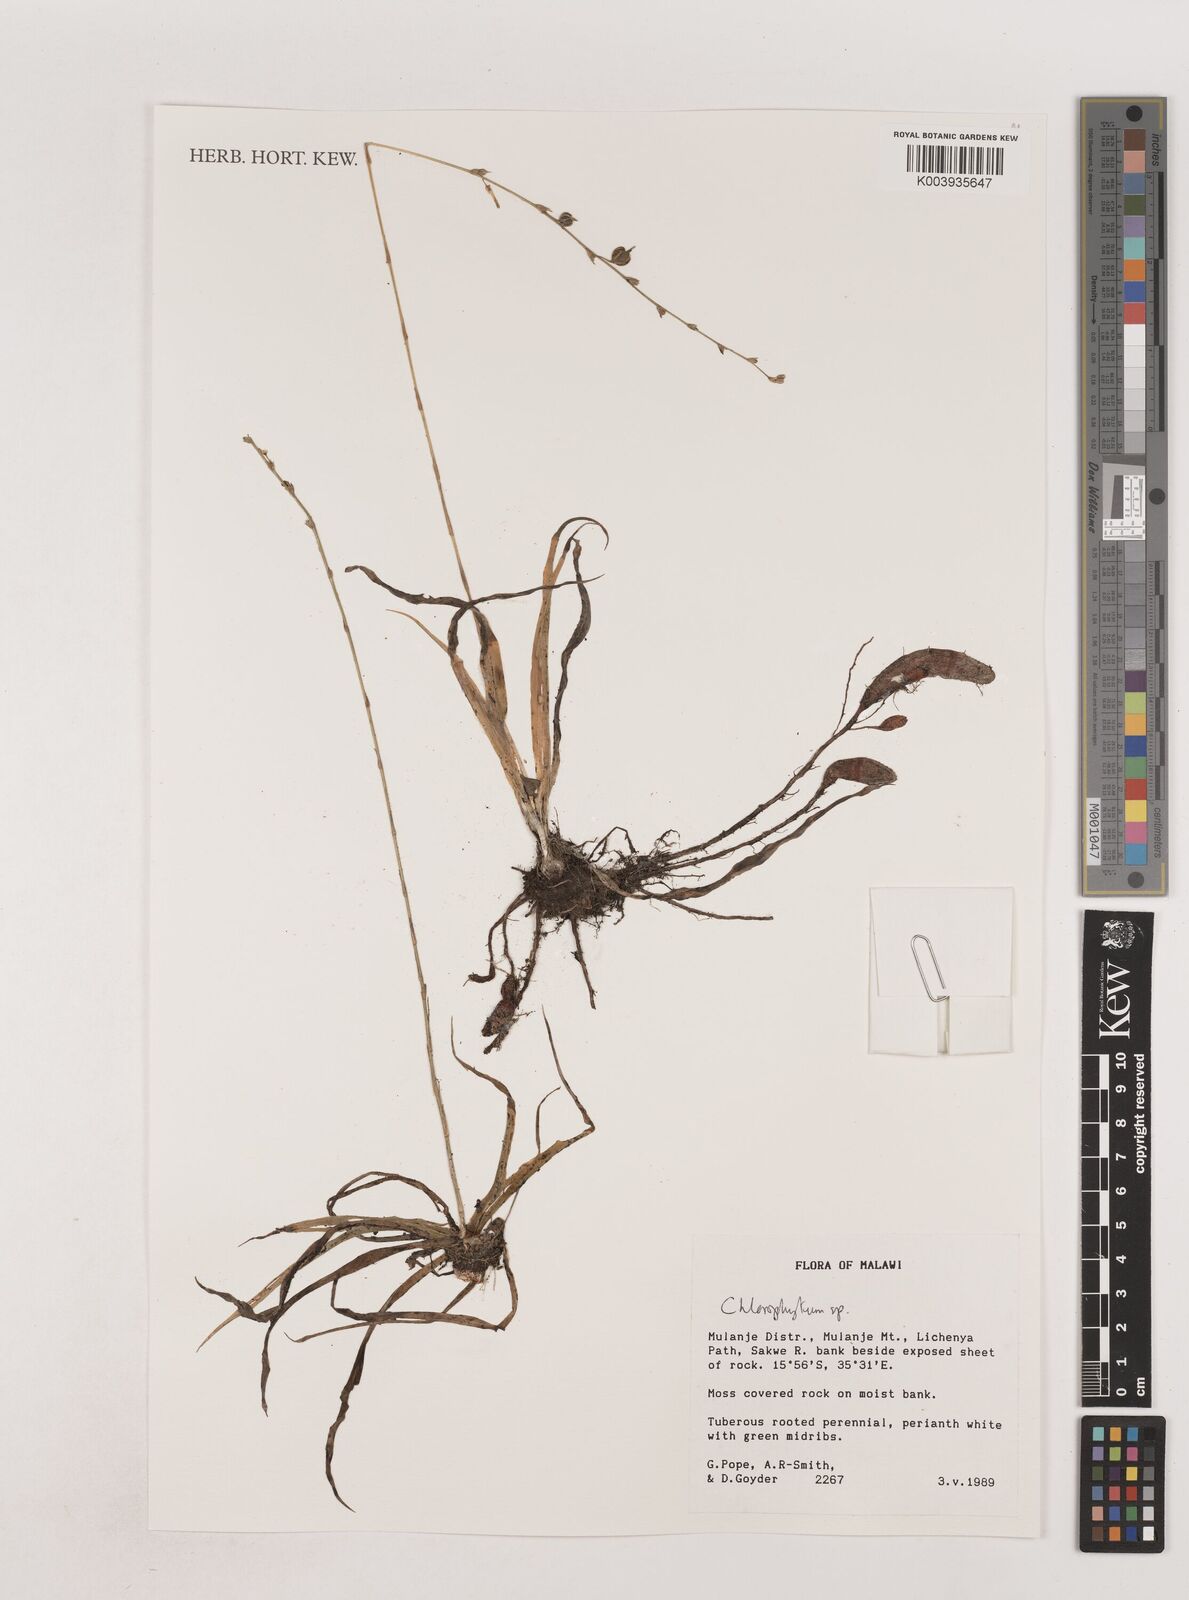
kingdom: Plantae
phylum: Tracheophyta
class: Liliopsida
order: Asparagales
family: Asparagaceae
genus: Chlorophytum
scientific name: Chlorophytum
